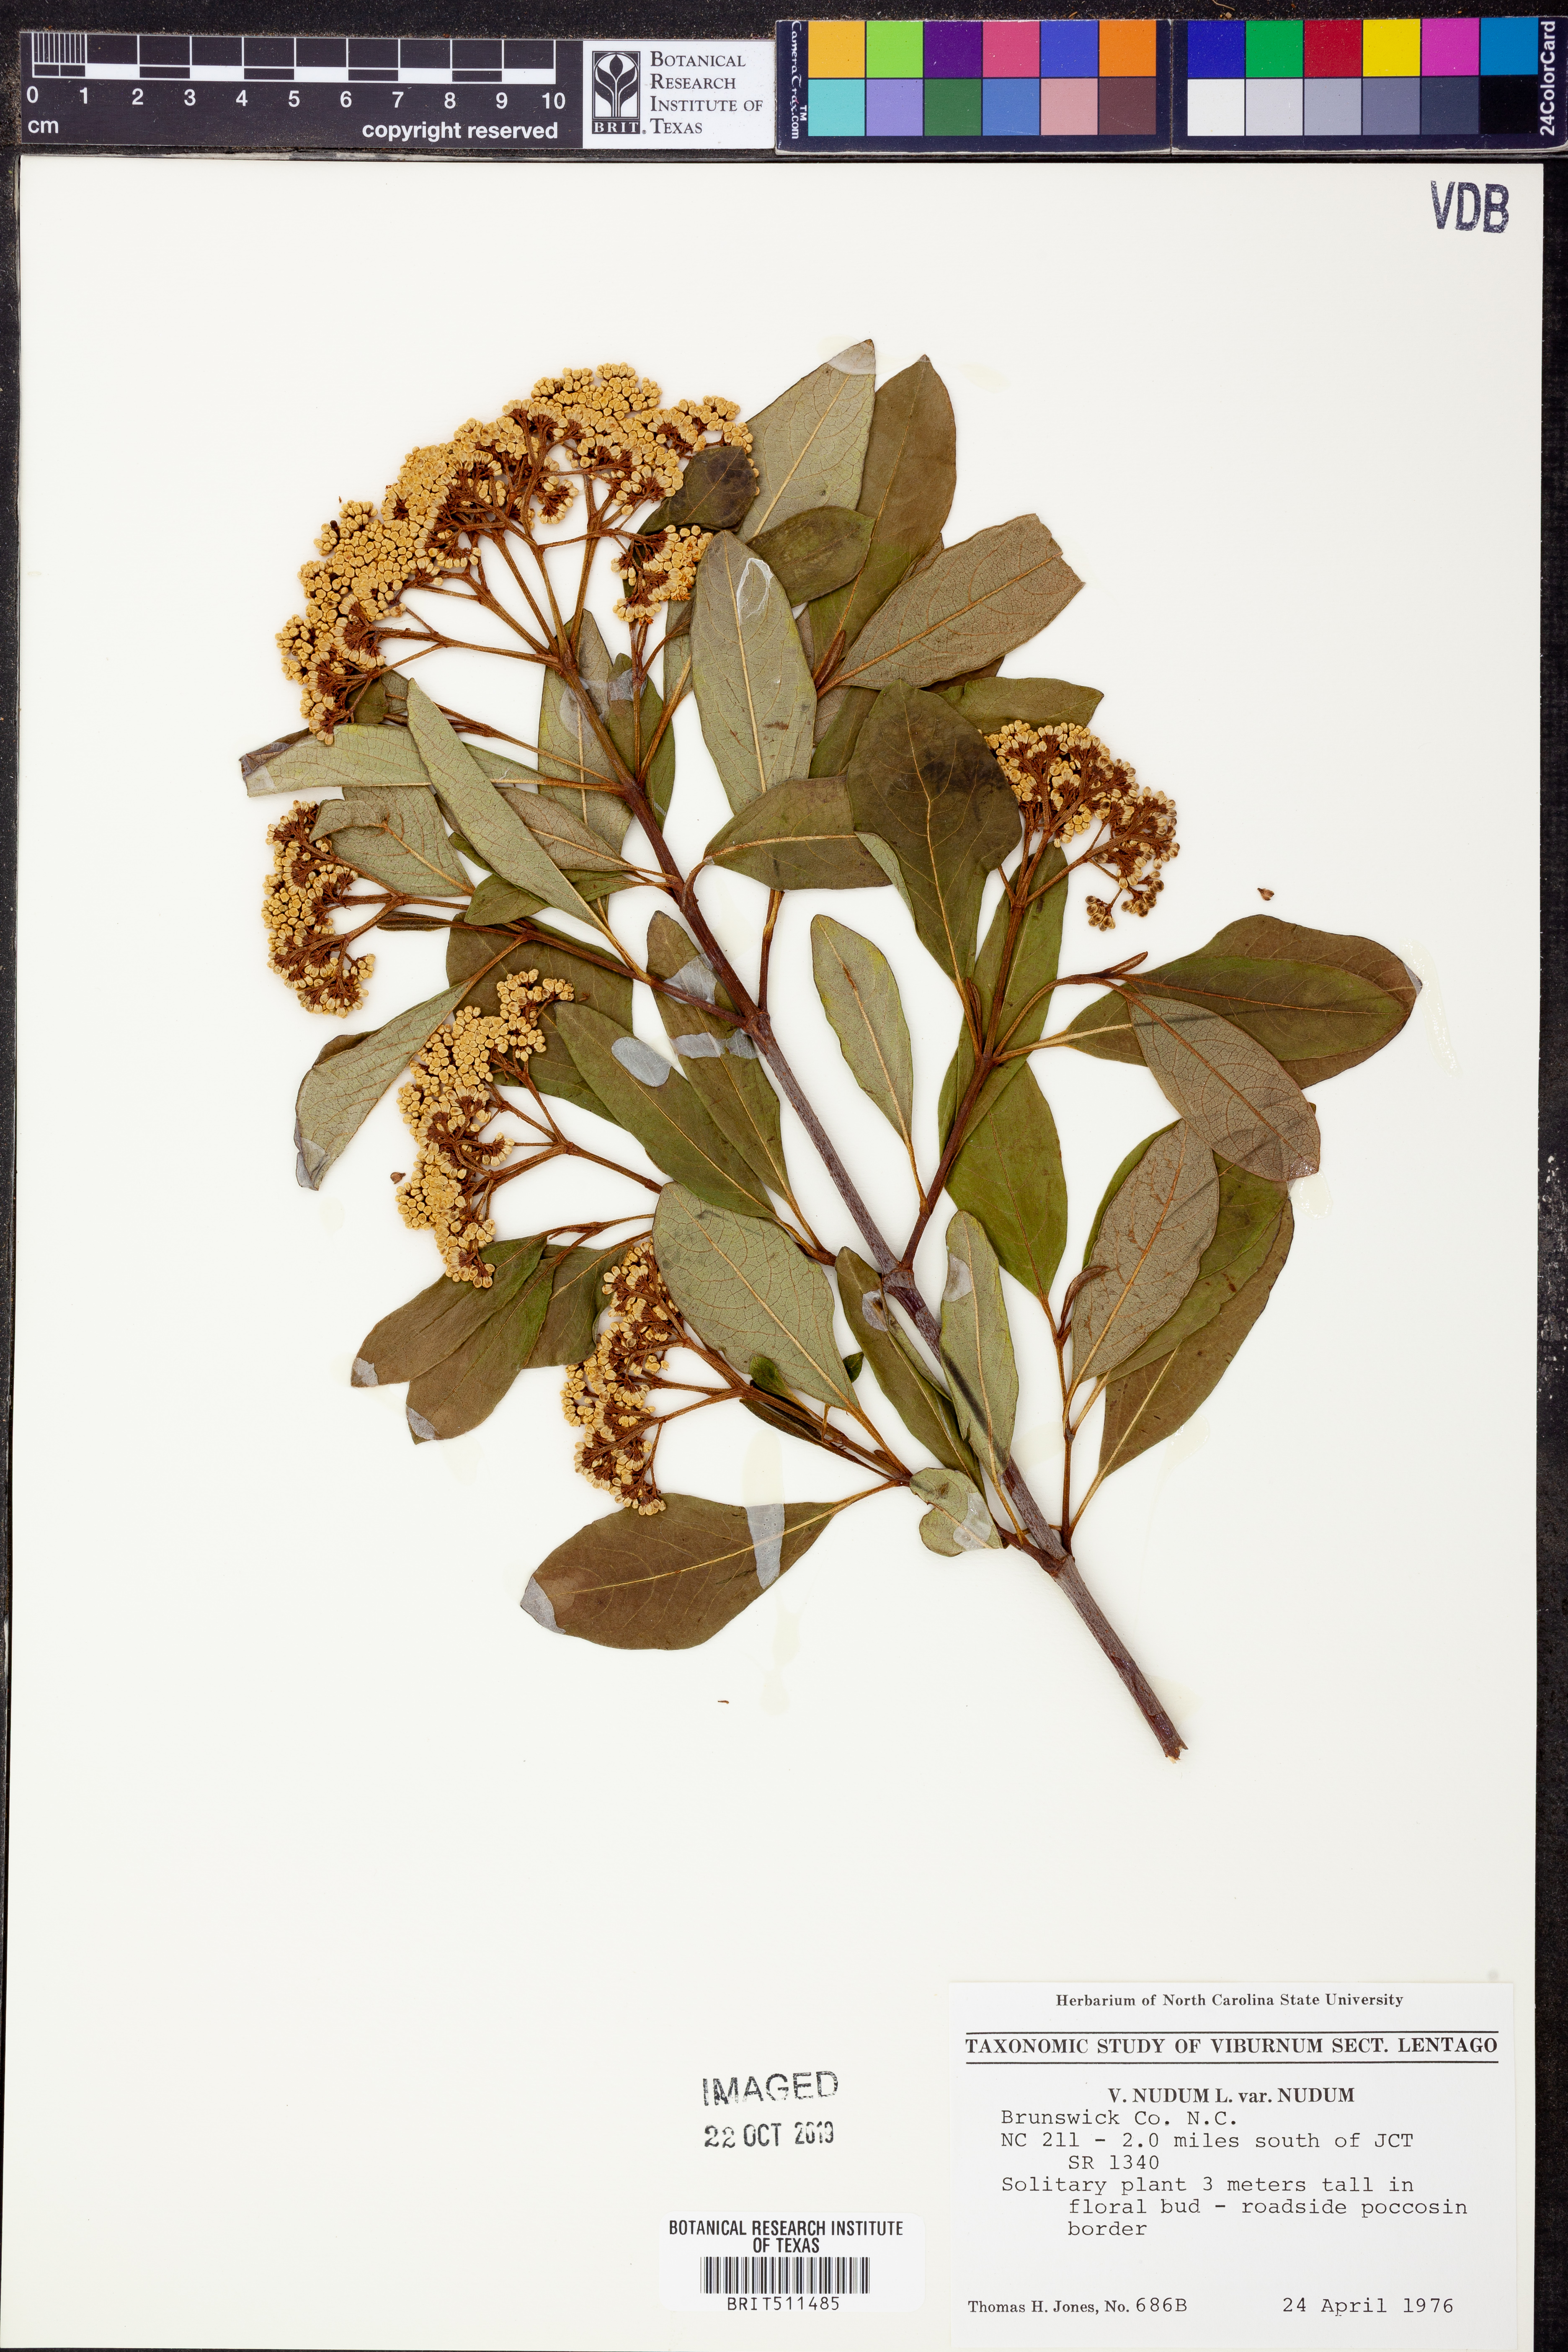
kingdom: Plantae
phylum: Tracheophyta
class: Magnoliopsida
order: Dipsacales
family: Viburnaceae
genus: Viburnum
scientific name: Viburnum nudum
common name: Possum haw
